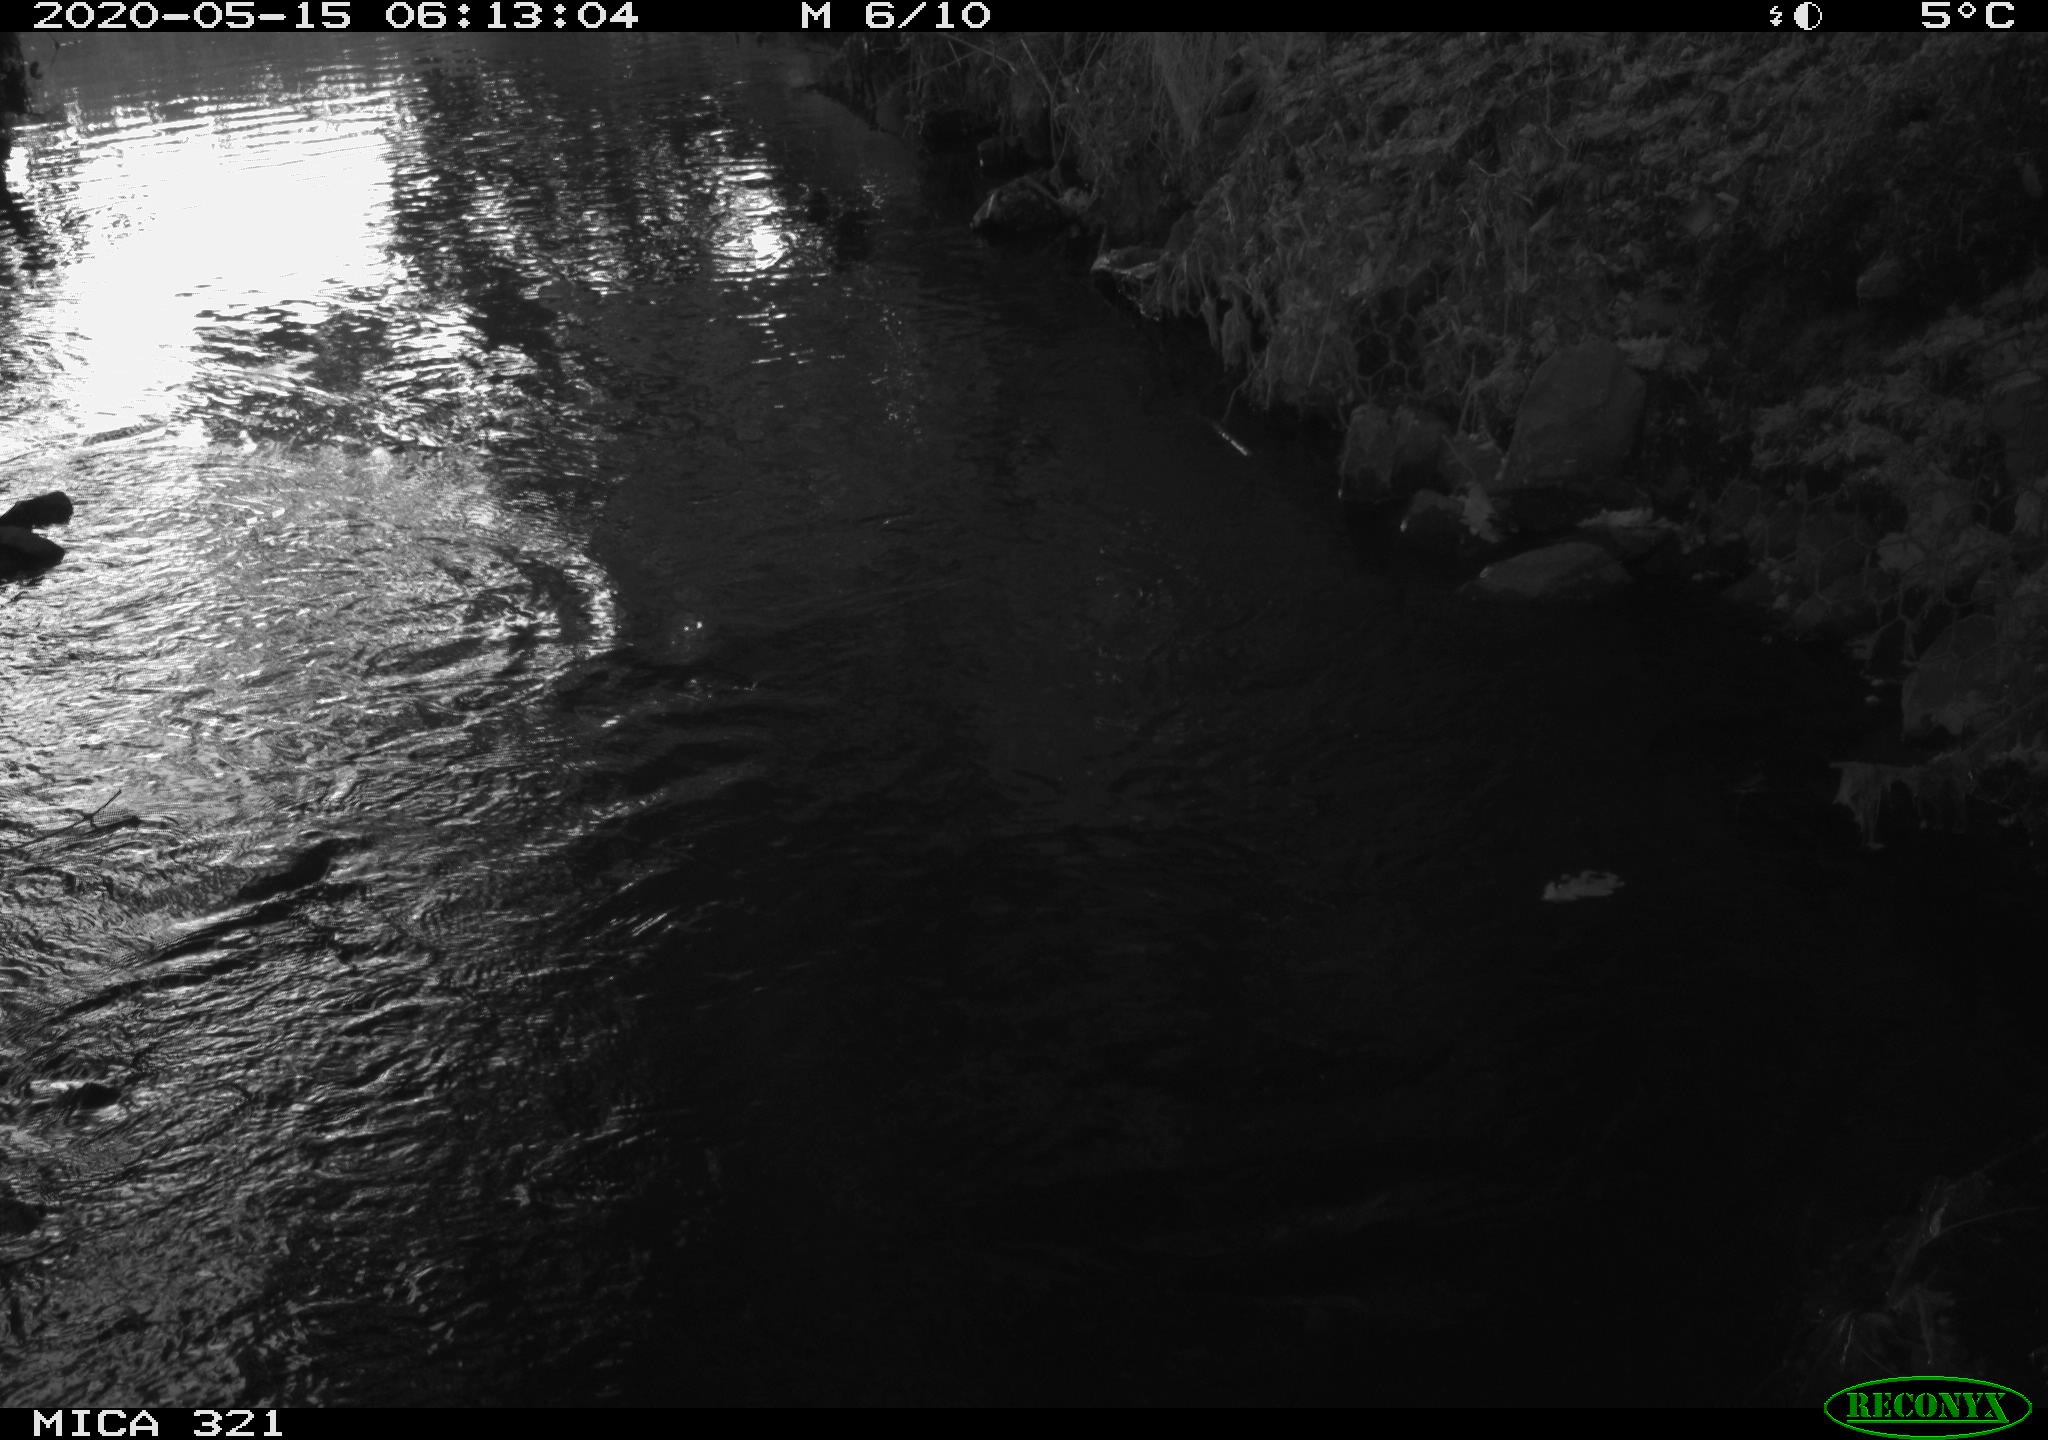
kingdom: Animalia
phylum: Chordata
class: Aves
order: Anseriformes
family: Anatidae
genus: Anas
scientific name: Anas platyrhynchos
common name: Mallard
